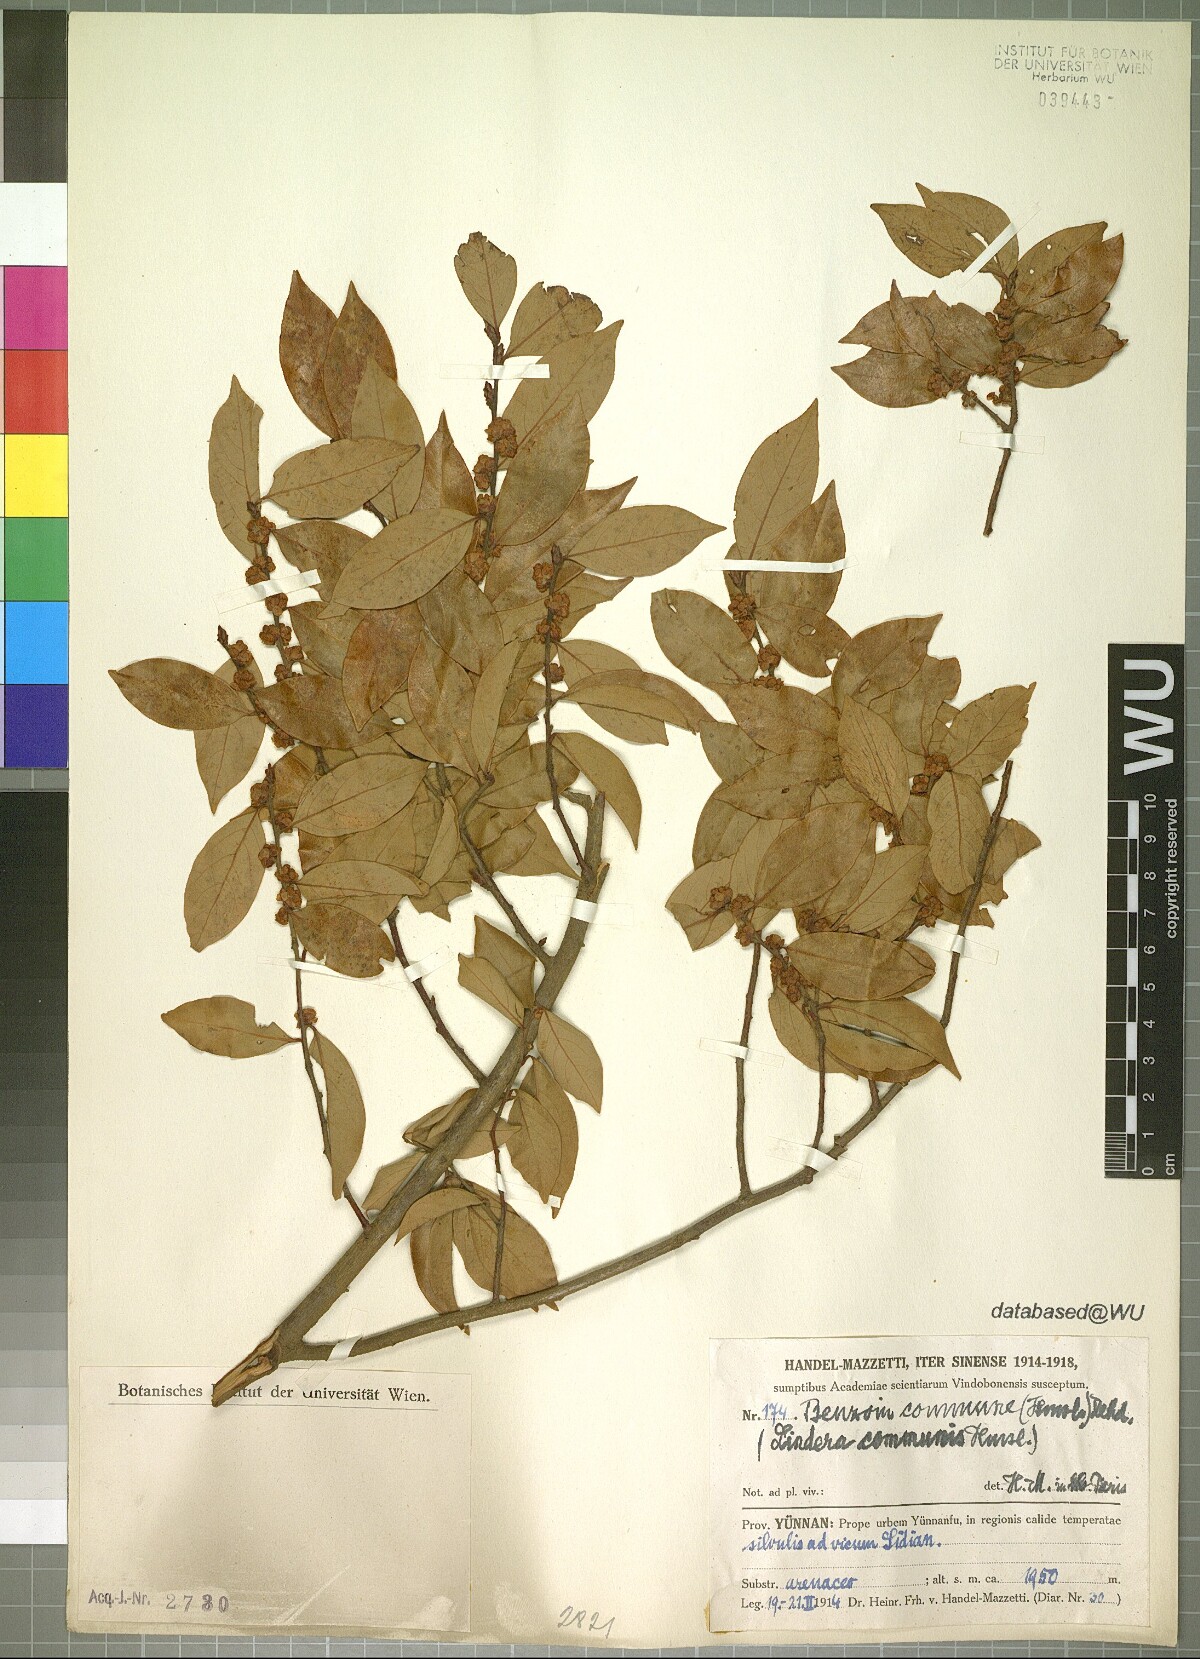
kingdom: Plantae
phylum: Tracheophyta
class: Magnoliopsida
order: Laurales
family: Lauraceae
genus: Lindera
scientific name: Lindera communis
